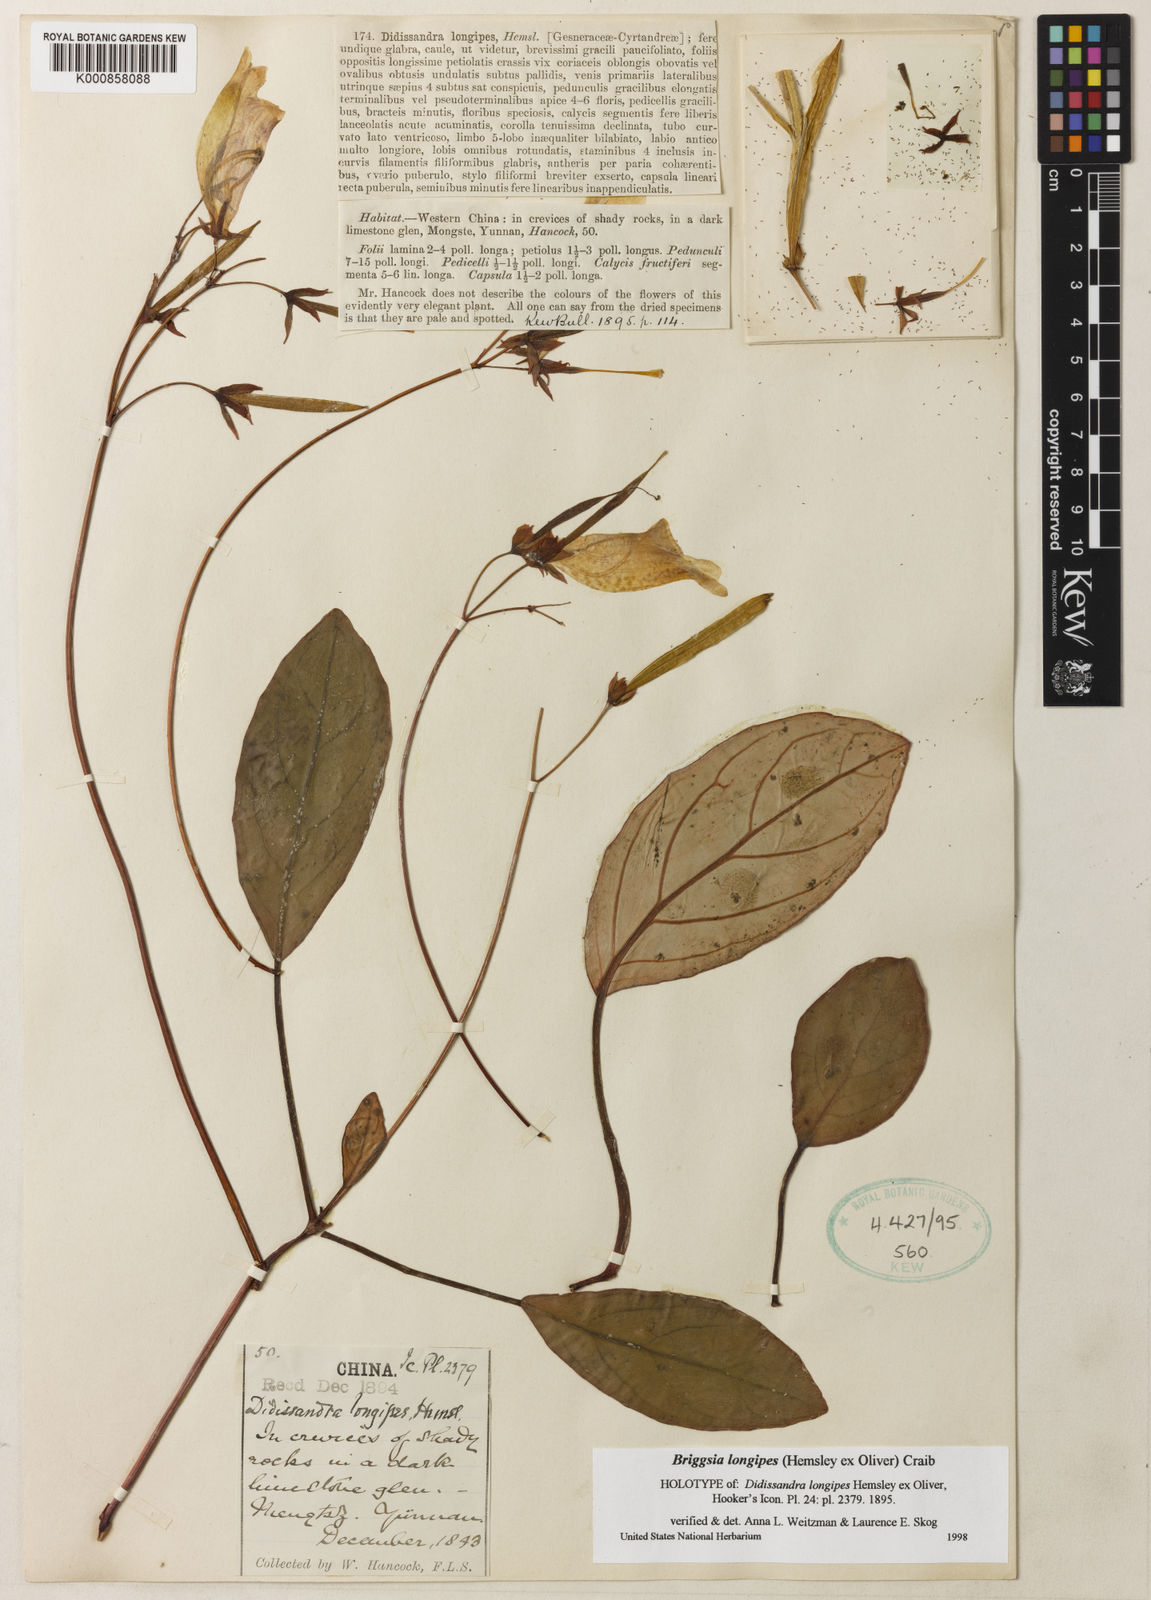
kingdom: Plantae
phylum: Tracheophyta
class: Magnoliopsida
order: Lamiales
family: Gesneriaceae
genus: Glabrella
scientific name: Glabrella
